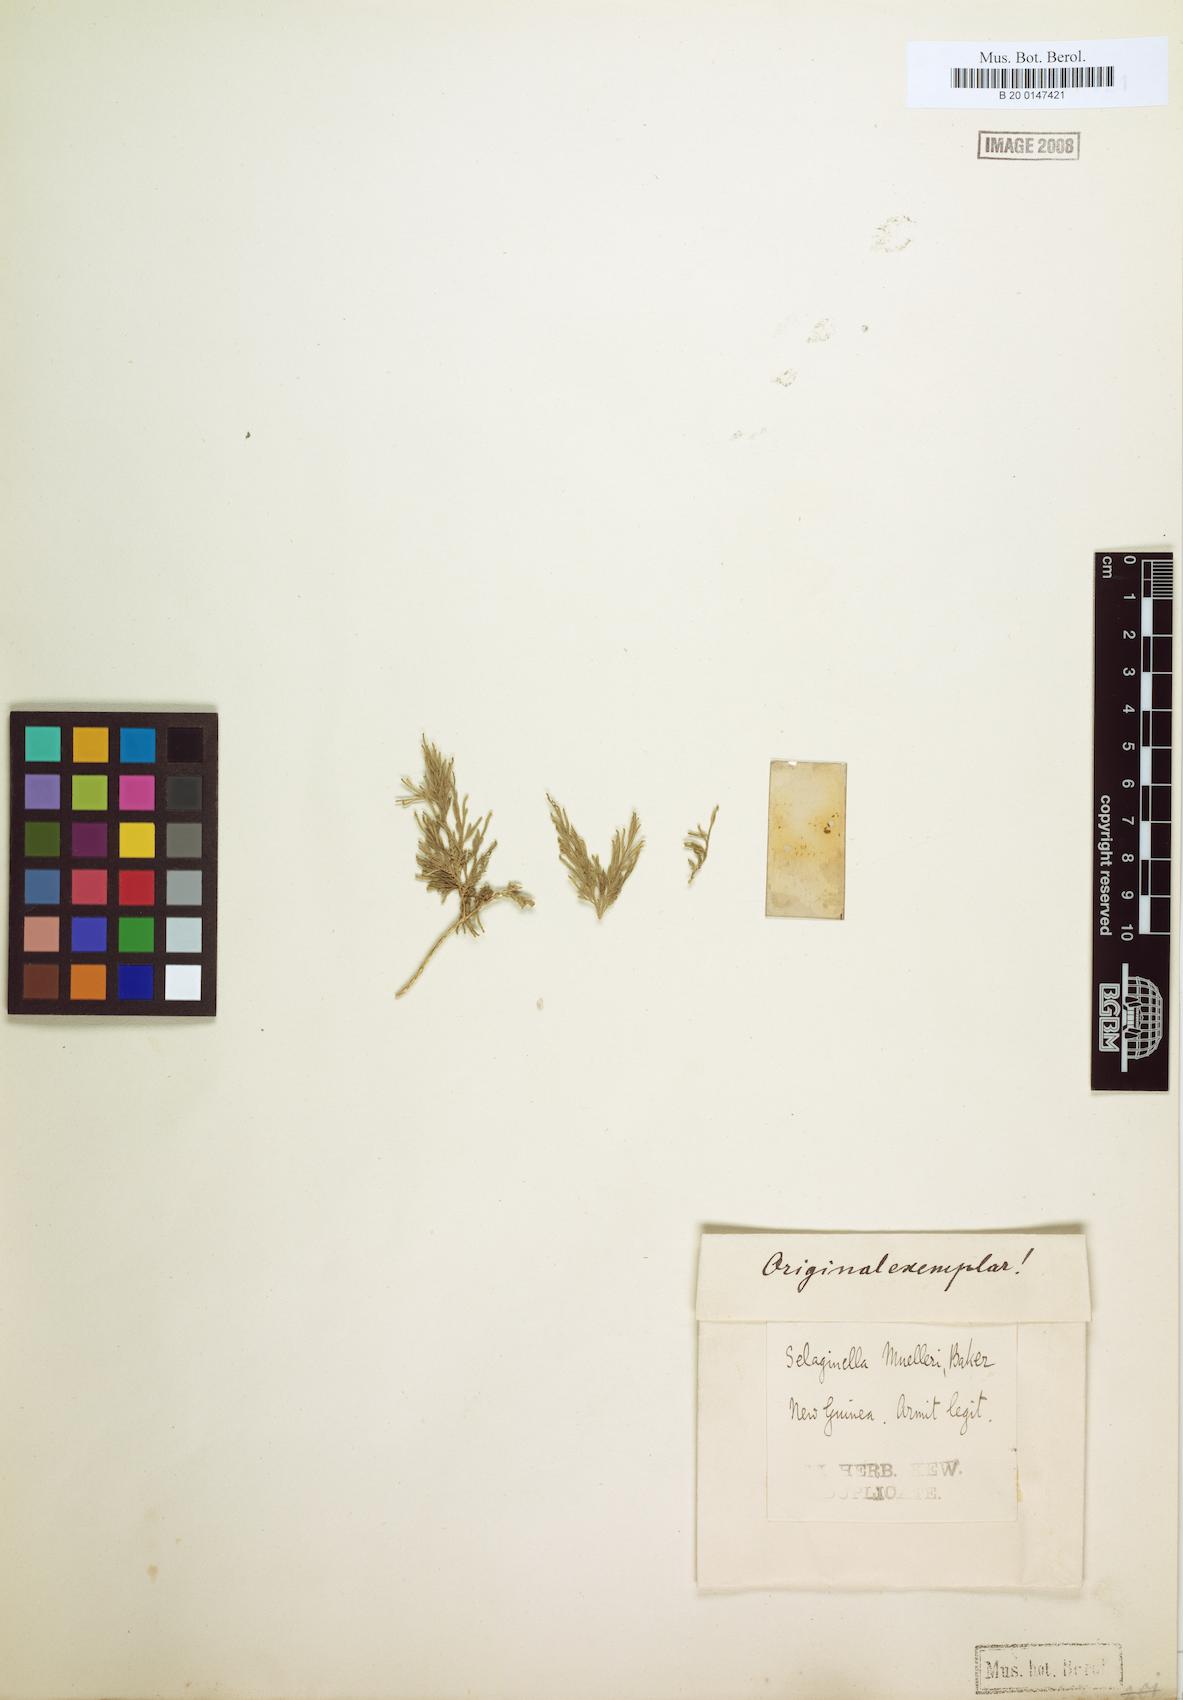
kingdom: Plantae
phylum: Tracheophyta
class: Lycopodiopsida
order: Selaginellales
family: Selaginellaceae
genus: Selaginella
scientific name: Selaginella muelleri
